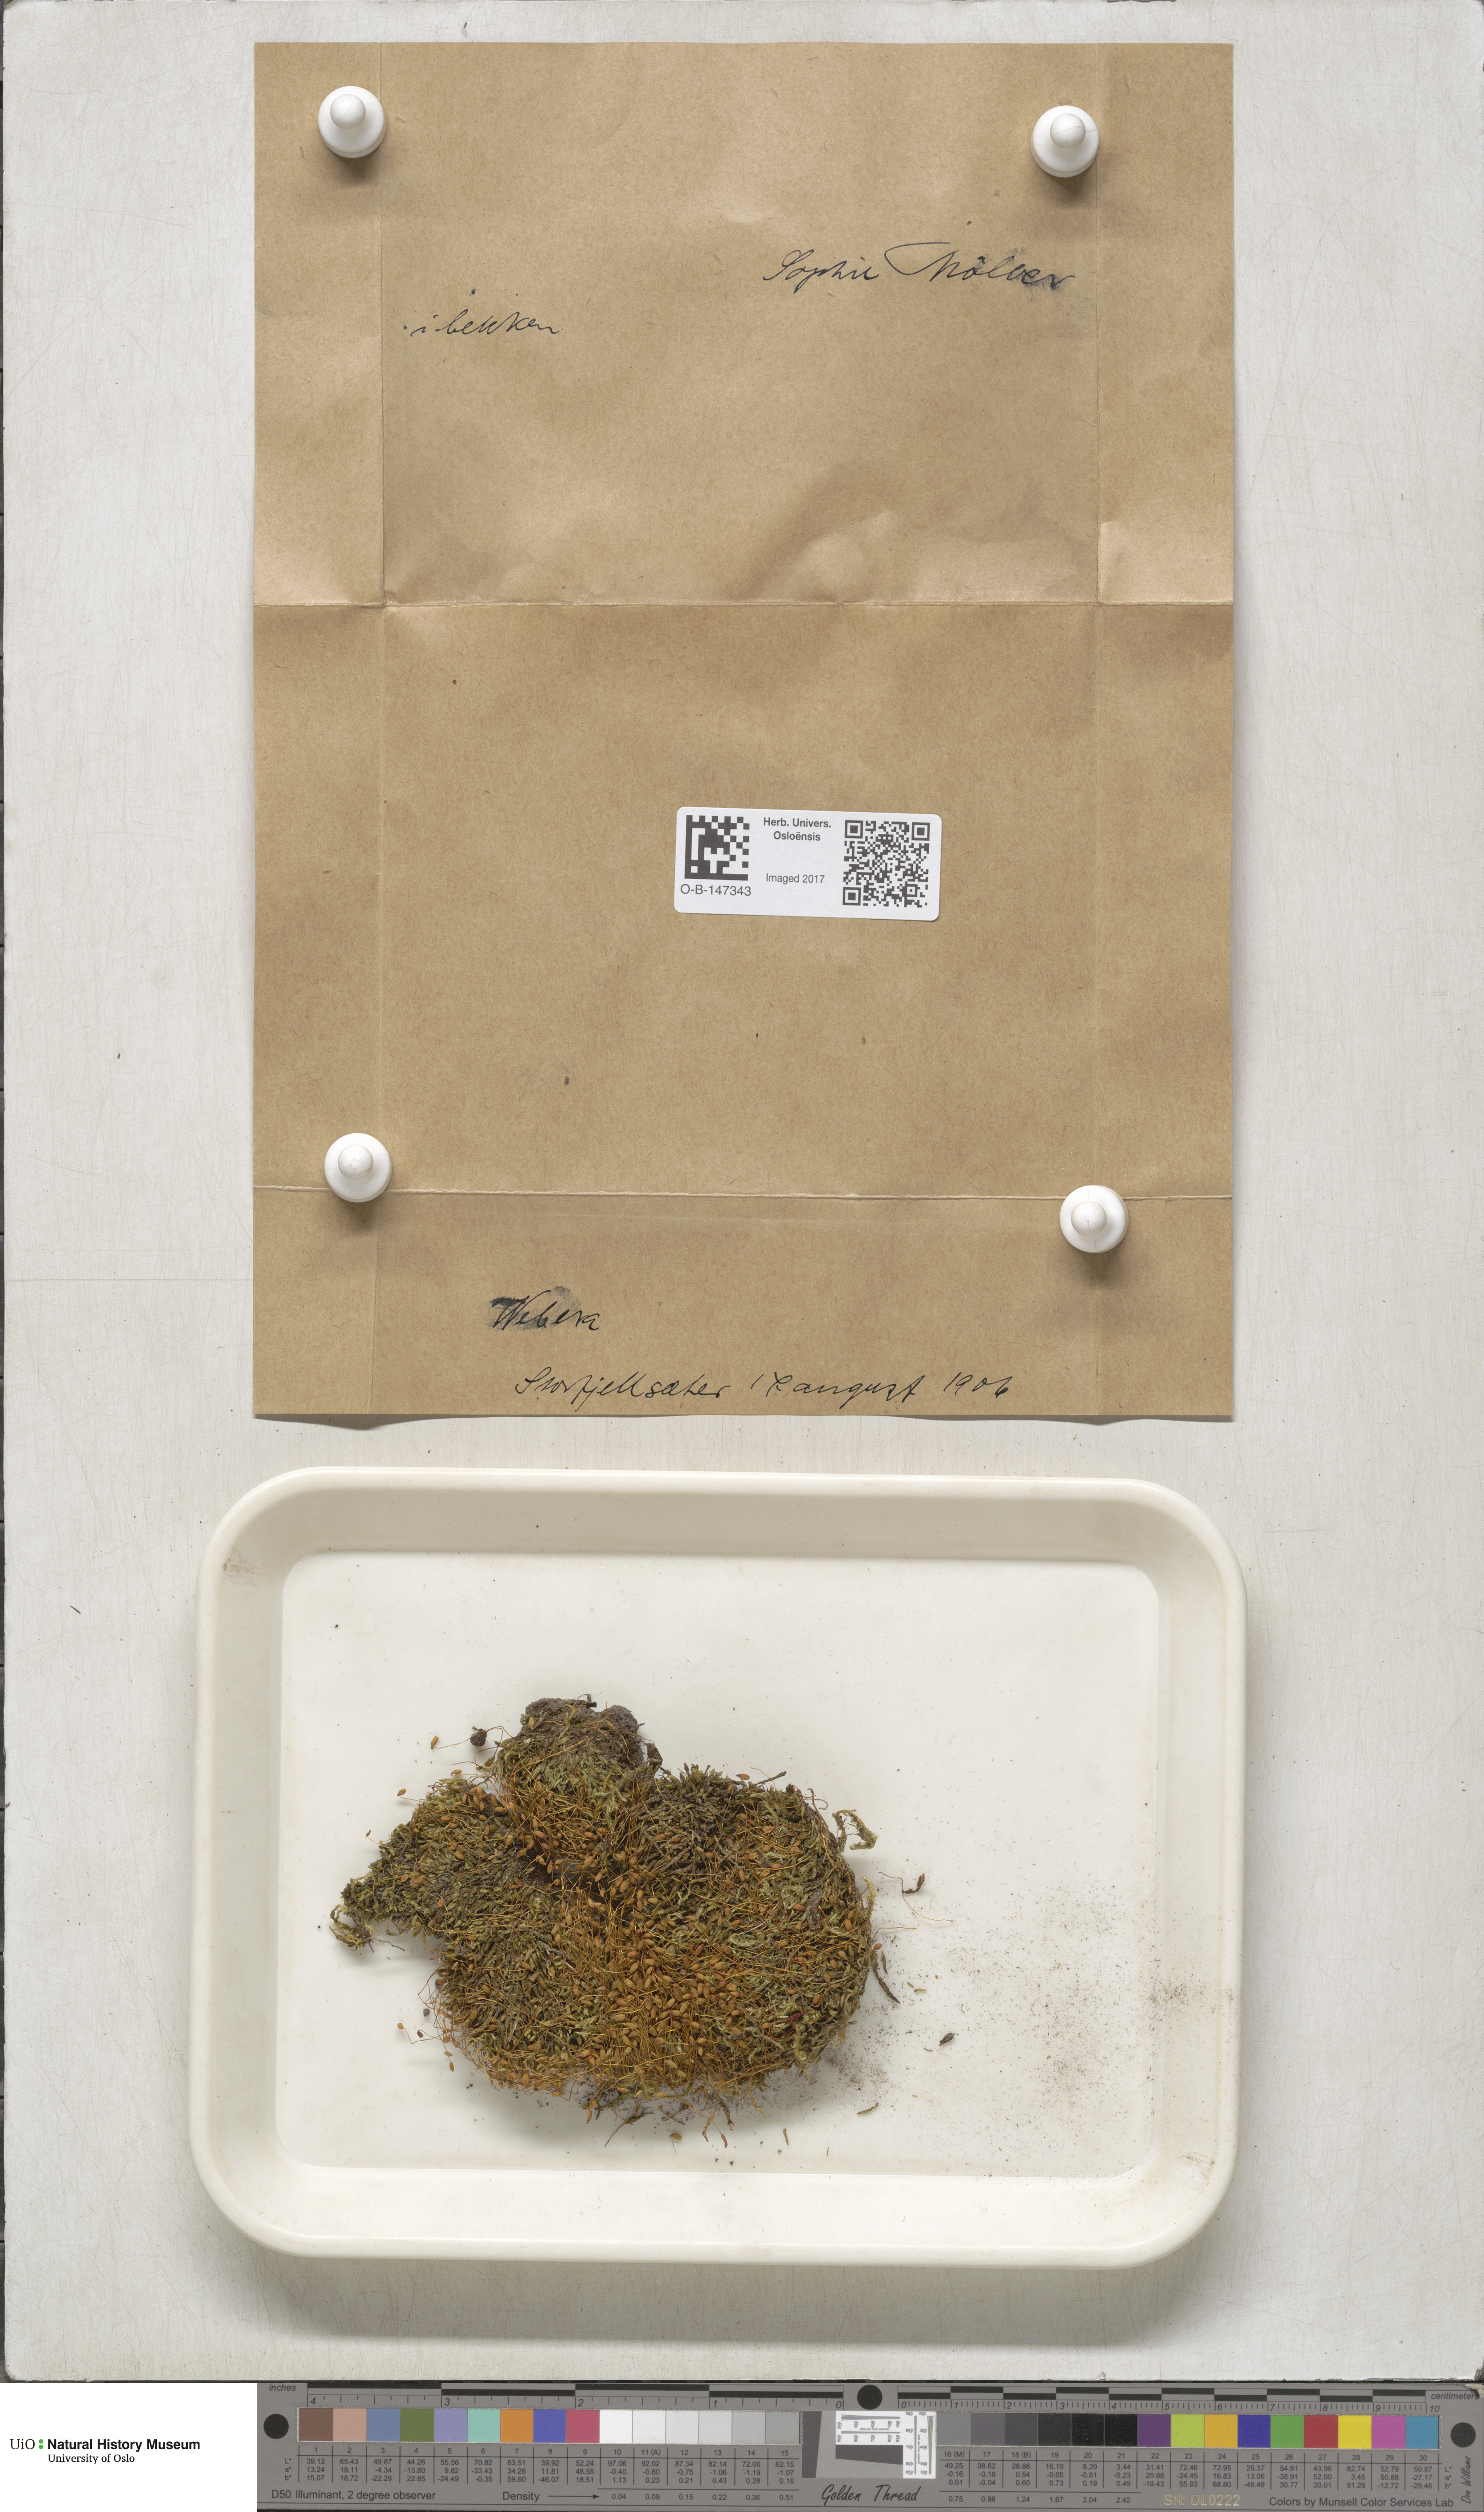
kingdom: Plantae
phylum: Bryophyta
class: Bryopsida
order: Bryales
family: Mniaceae
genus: Pohlia
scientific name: Pohlia
